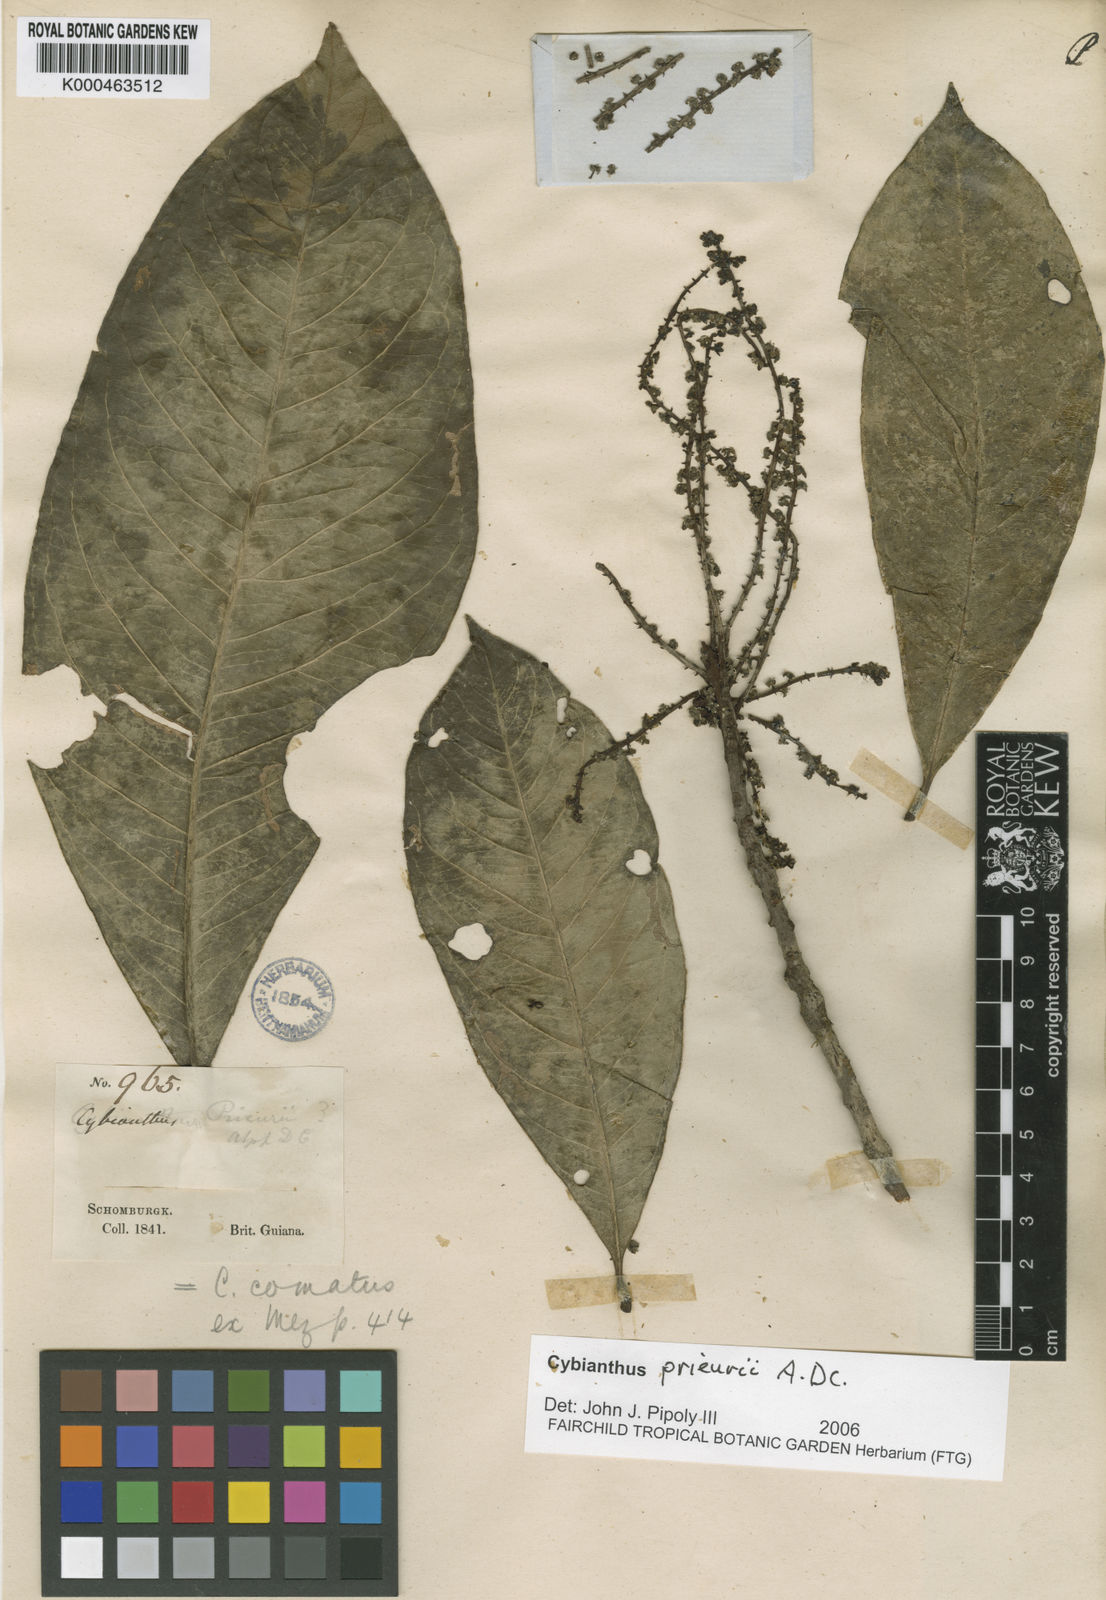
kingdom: Plantae
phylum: Tracheophyta
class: Magnoliopsida
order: Ericales
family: Primulaceae
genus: Cybianthus
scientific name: Cybianthus prieurii
